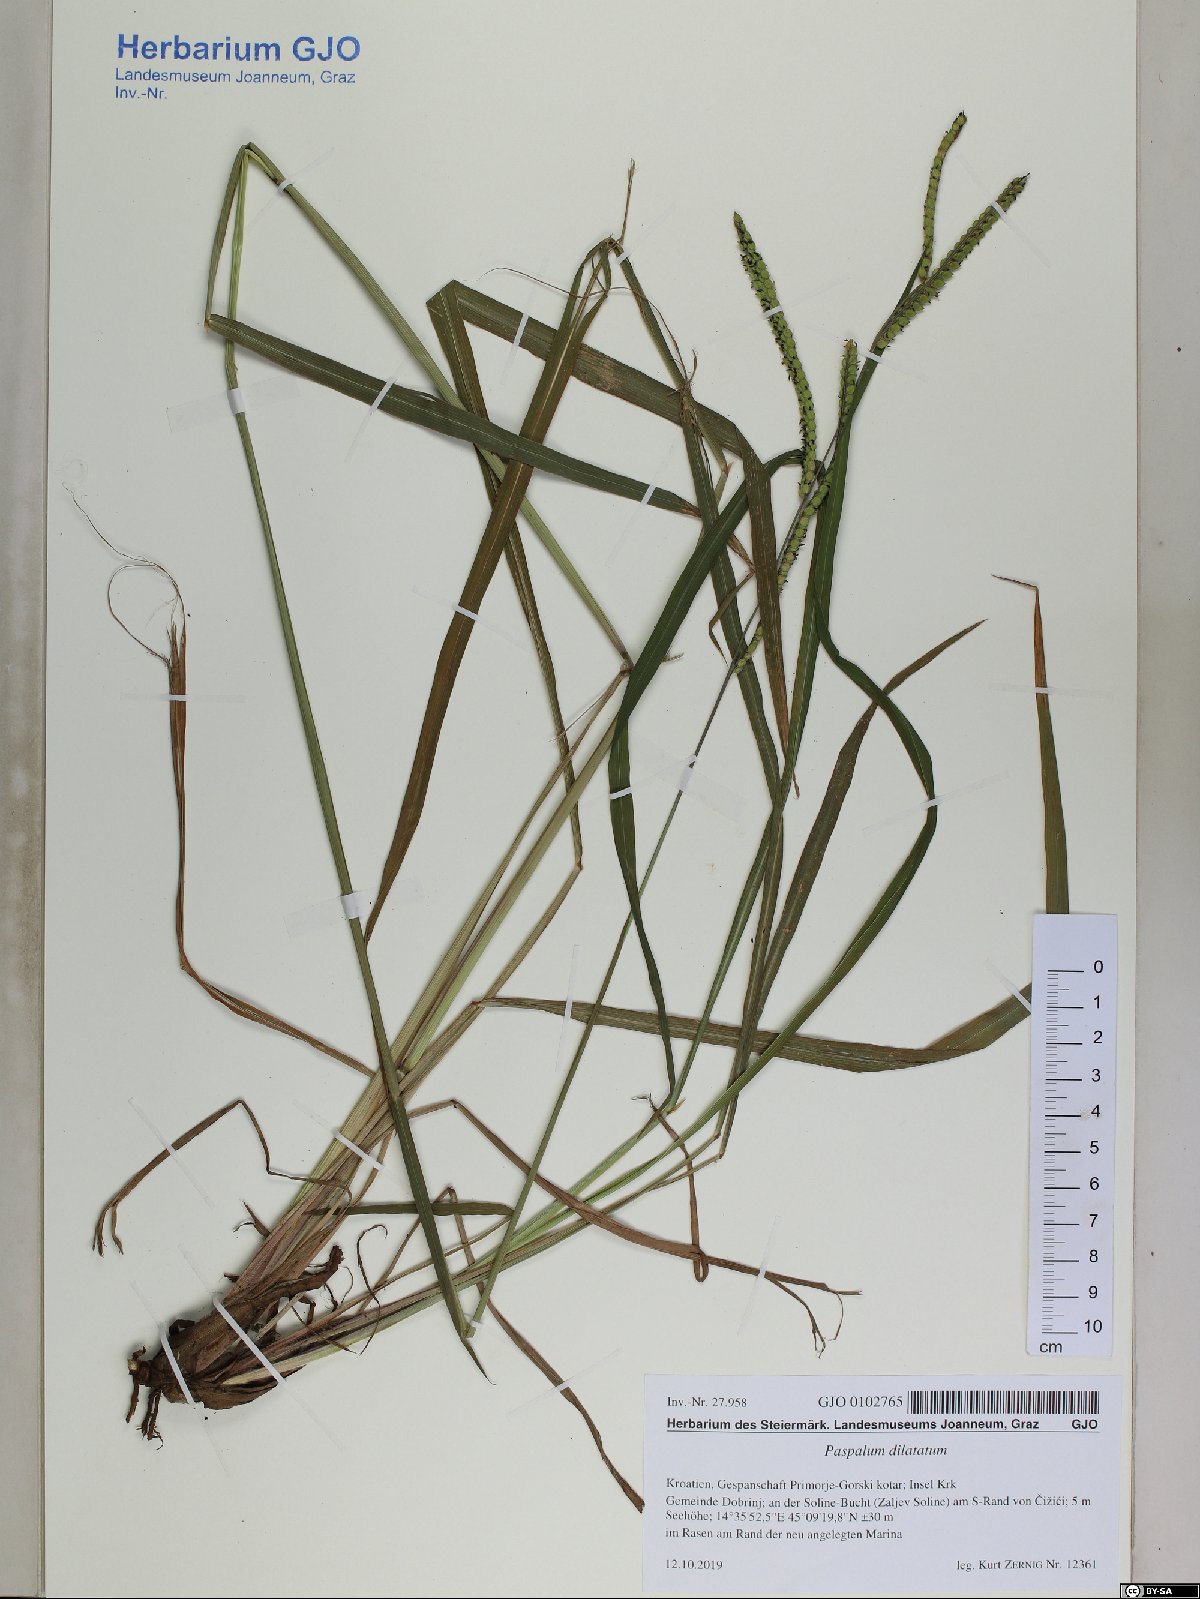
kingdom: Plantae
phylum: Tracheophyta
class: Liliopsida
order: Poales
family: Poaceae
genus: Paspalum
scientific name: Paspalum dilatatum
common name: Dallisgrass
